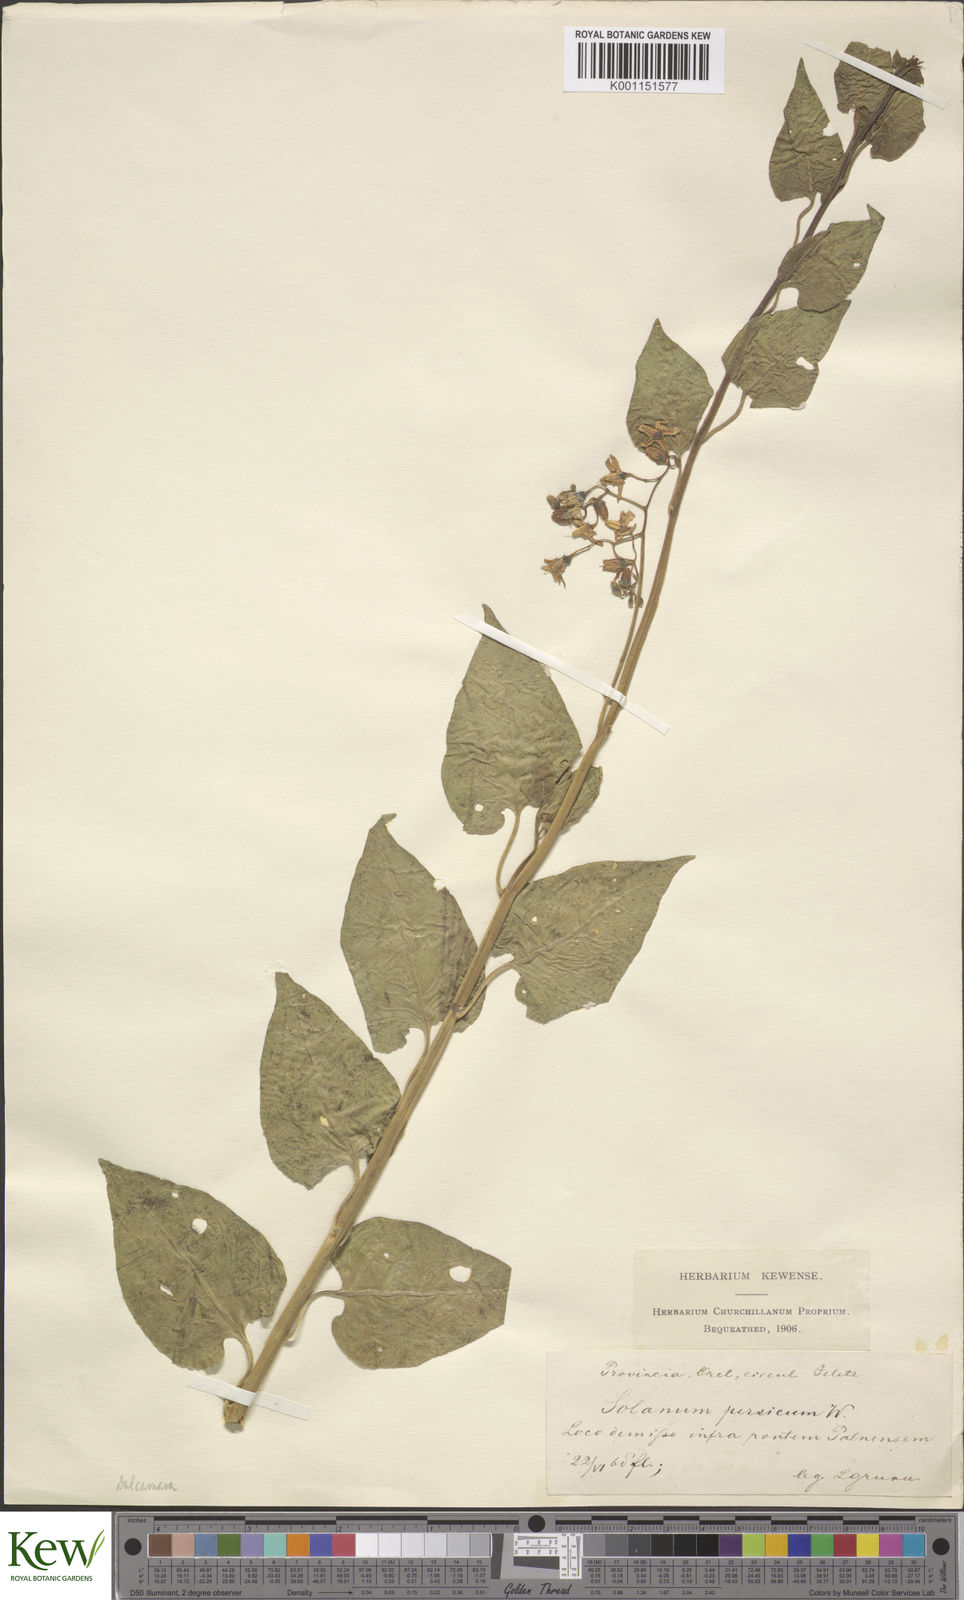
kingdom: Plantae
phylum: Tracheophyta
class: Magnoliopsida
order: Solanales
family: Solanaceae
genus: Solanum
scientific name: Solanum dulcamara
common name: Climbing nightshade
